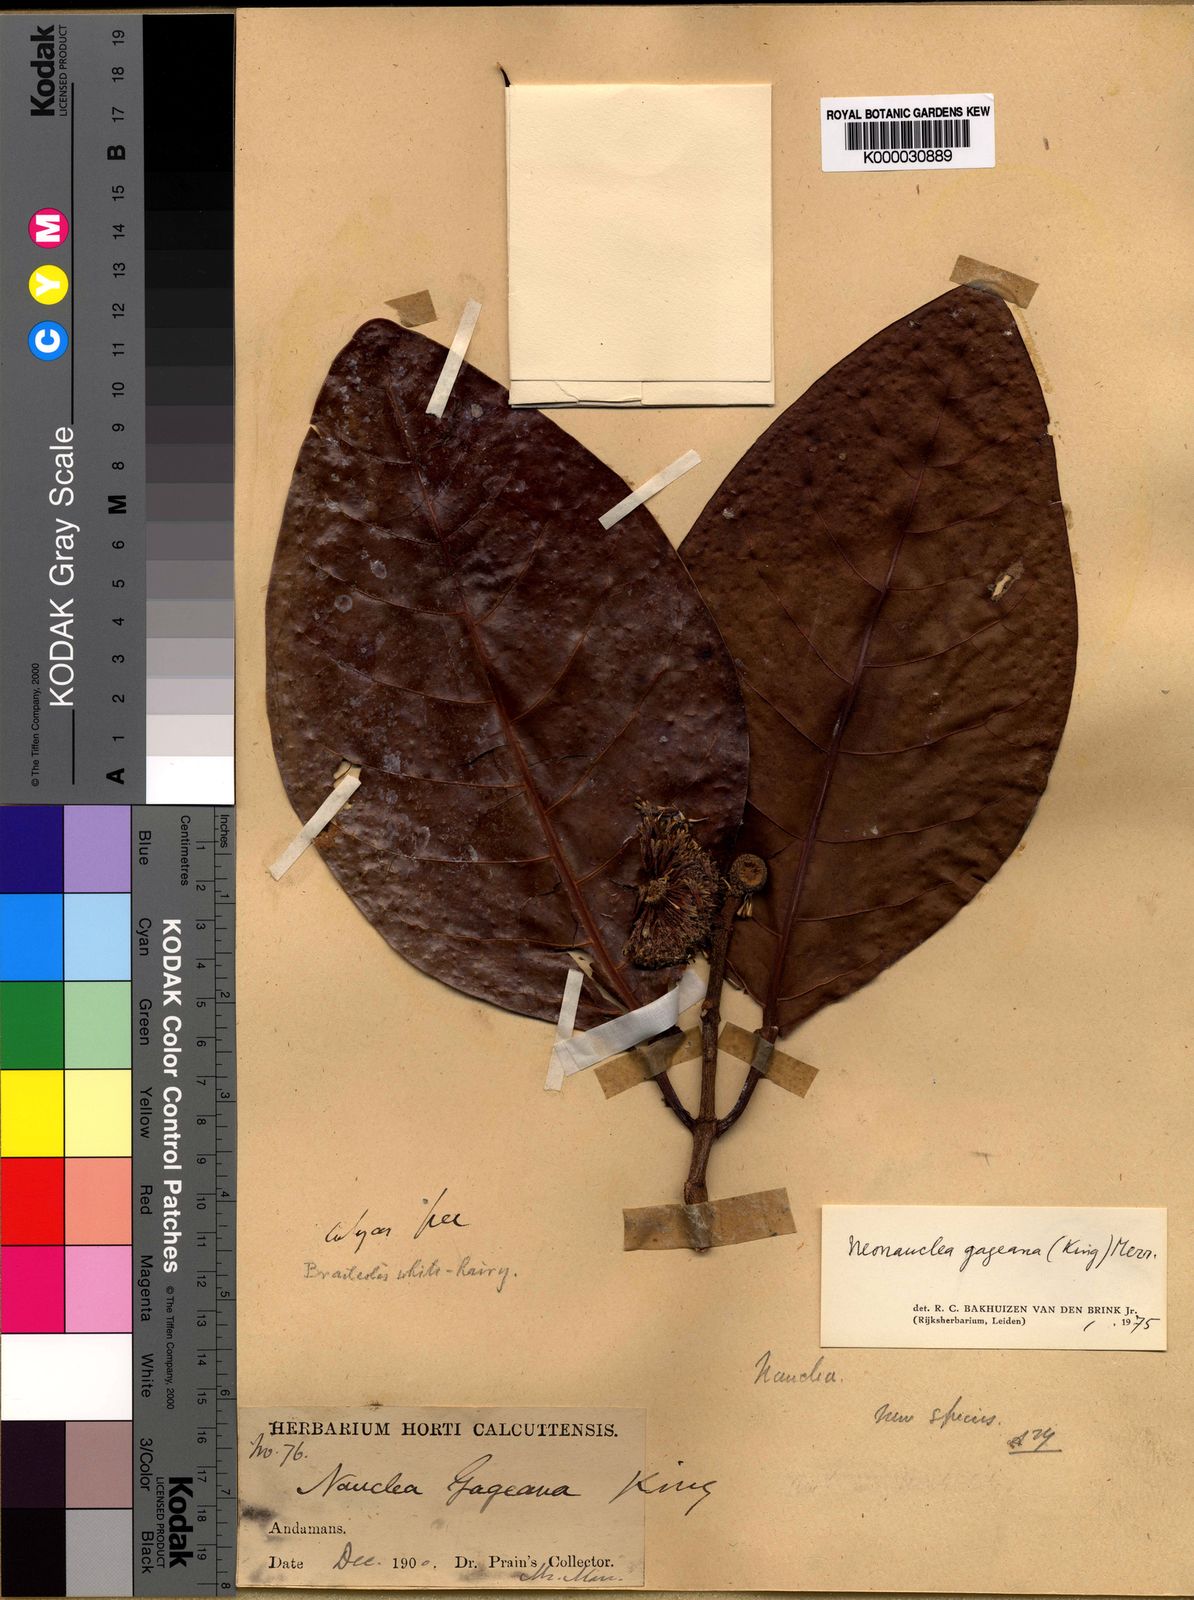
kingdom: Plantae
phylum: Tracheophyta
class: Magnoliopsida
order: Gentianales
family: Rubiaceae
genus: Neonauclea
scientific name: Neonauclea gageana
